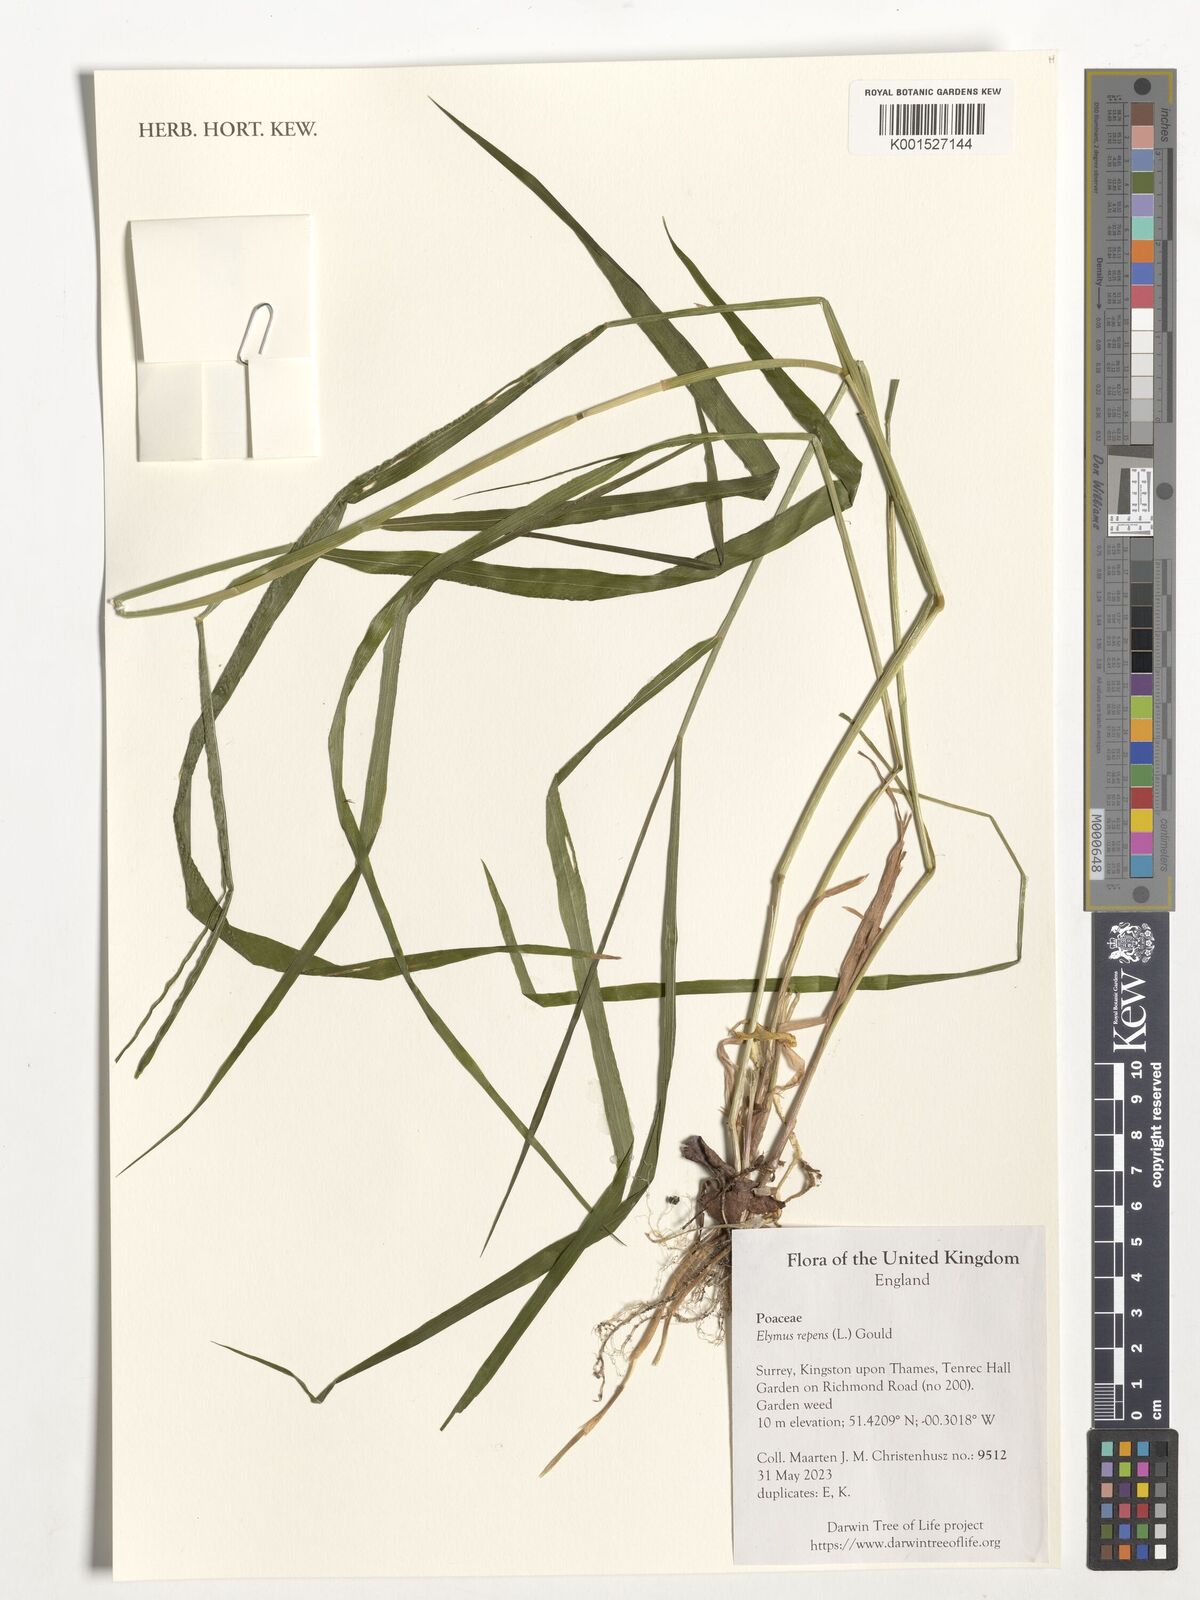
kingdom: Plantae
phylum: Tracheophyta
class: Liliopsida
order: Poales
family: Poaceae
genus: Elymus
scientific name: Elymus repens
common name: Quackgrass
